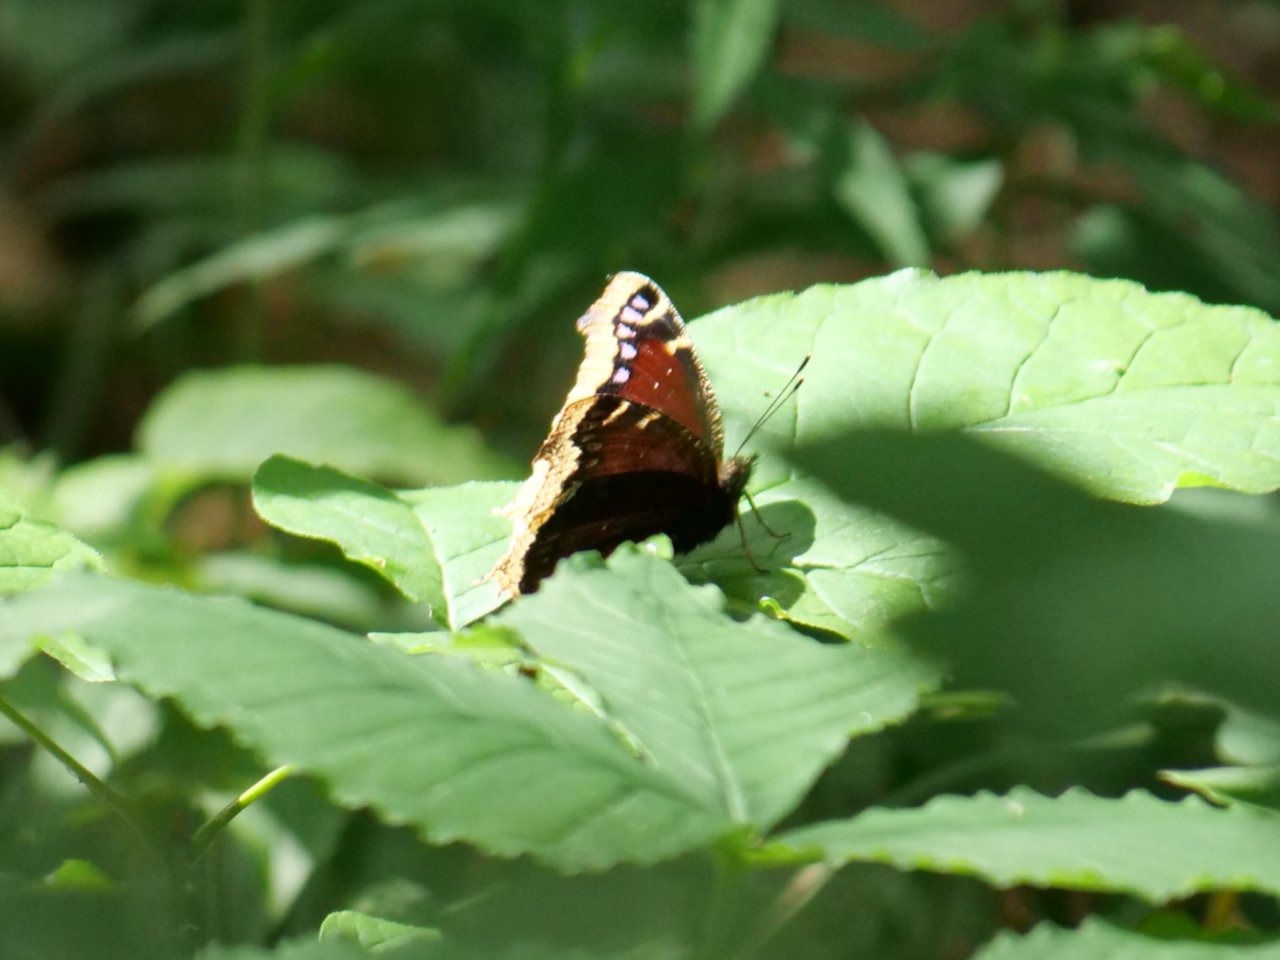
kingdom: Animalia
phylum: Arthropoda
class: Insecta
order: Lepidoptera
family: Nymphalidae
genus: Nymphalis
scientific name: Nymphalis antiopa
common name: Mourning Cloak
